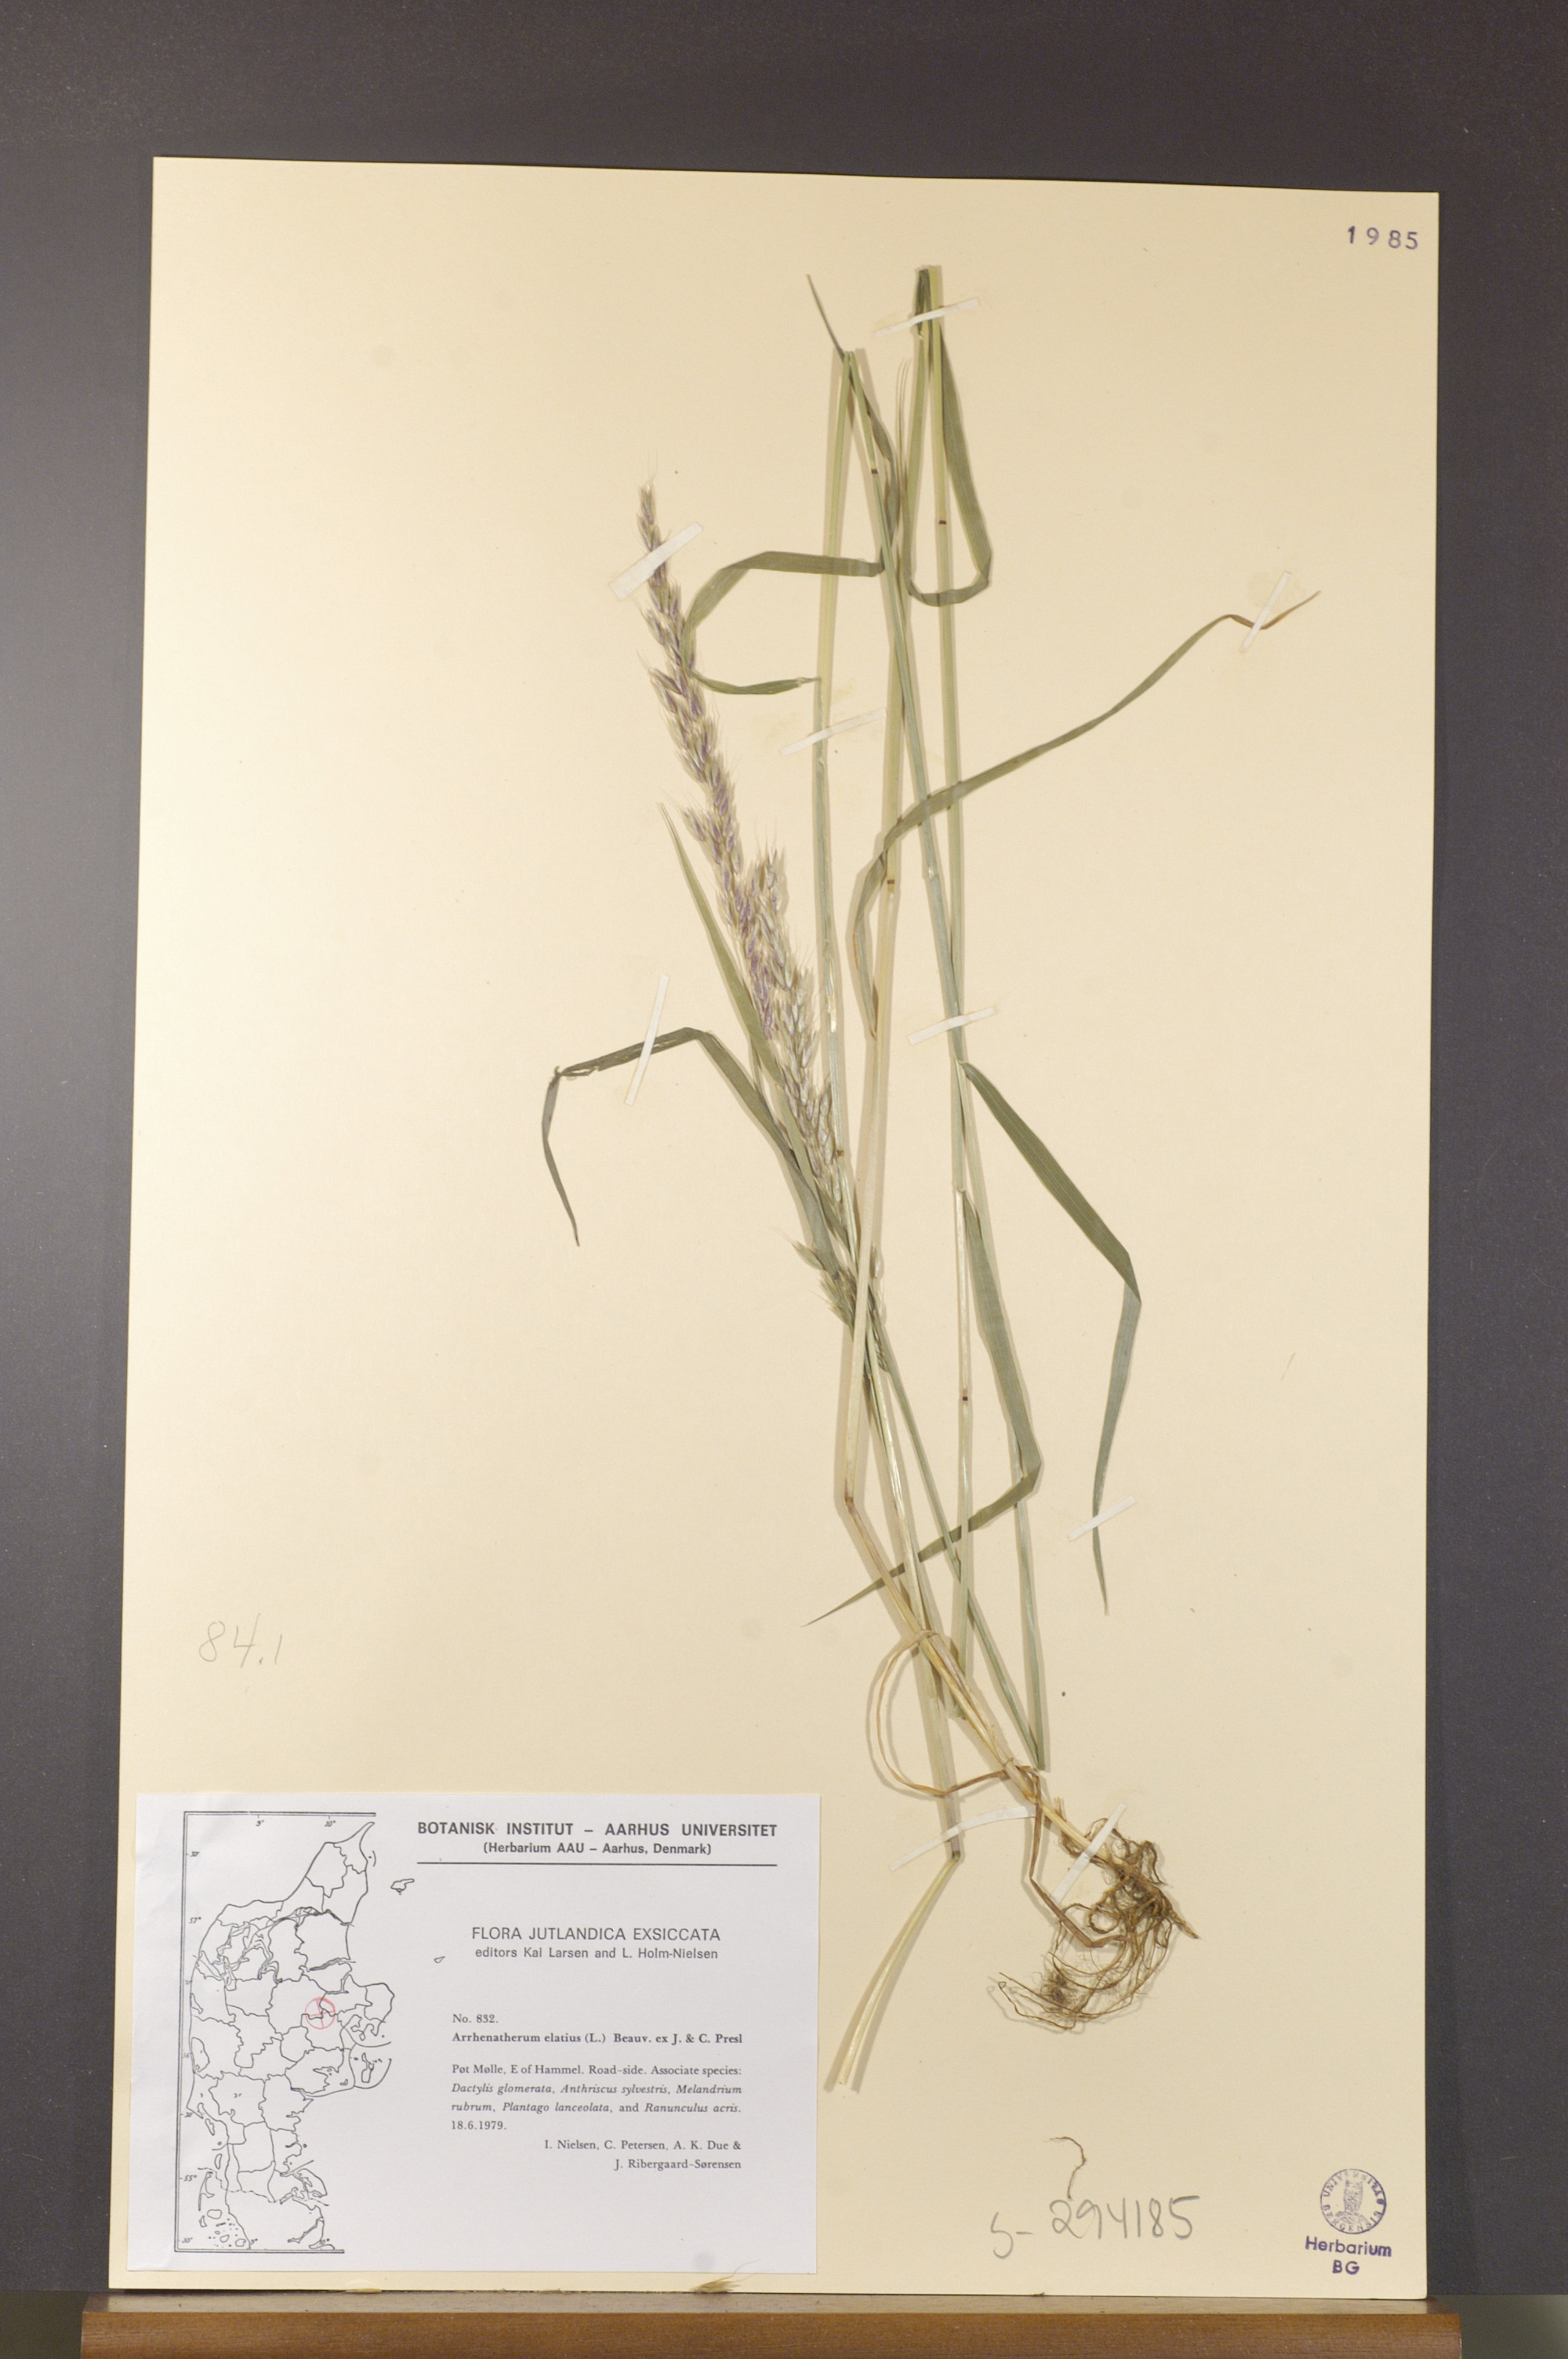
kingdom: Plantae
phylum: Tracheophyta
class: Liliopsida
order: Poales
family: Poaceae
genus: Arrhenatherum
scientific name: Arrhenatherum elatius
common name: Tall oatgrass
